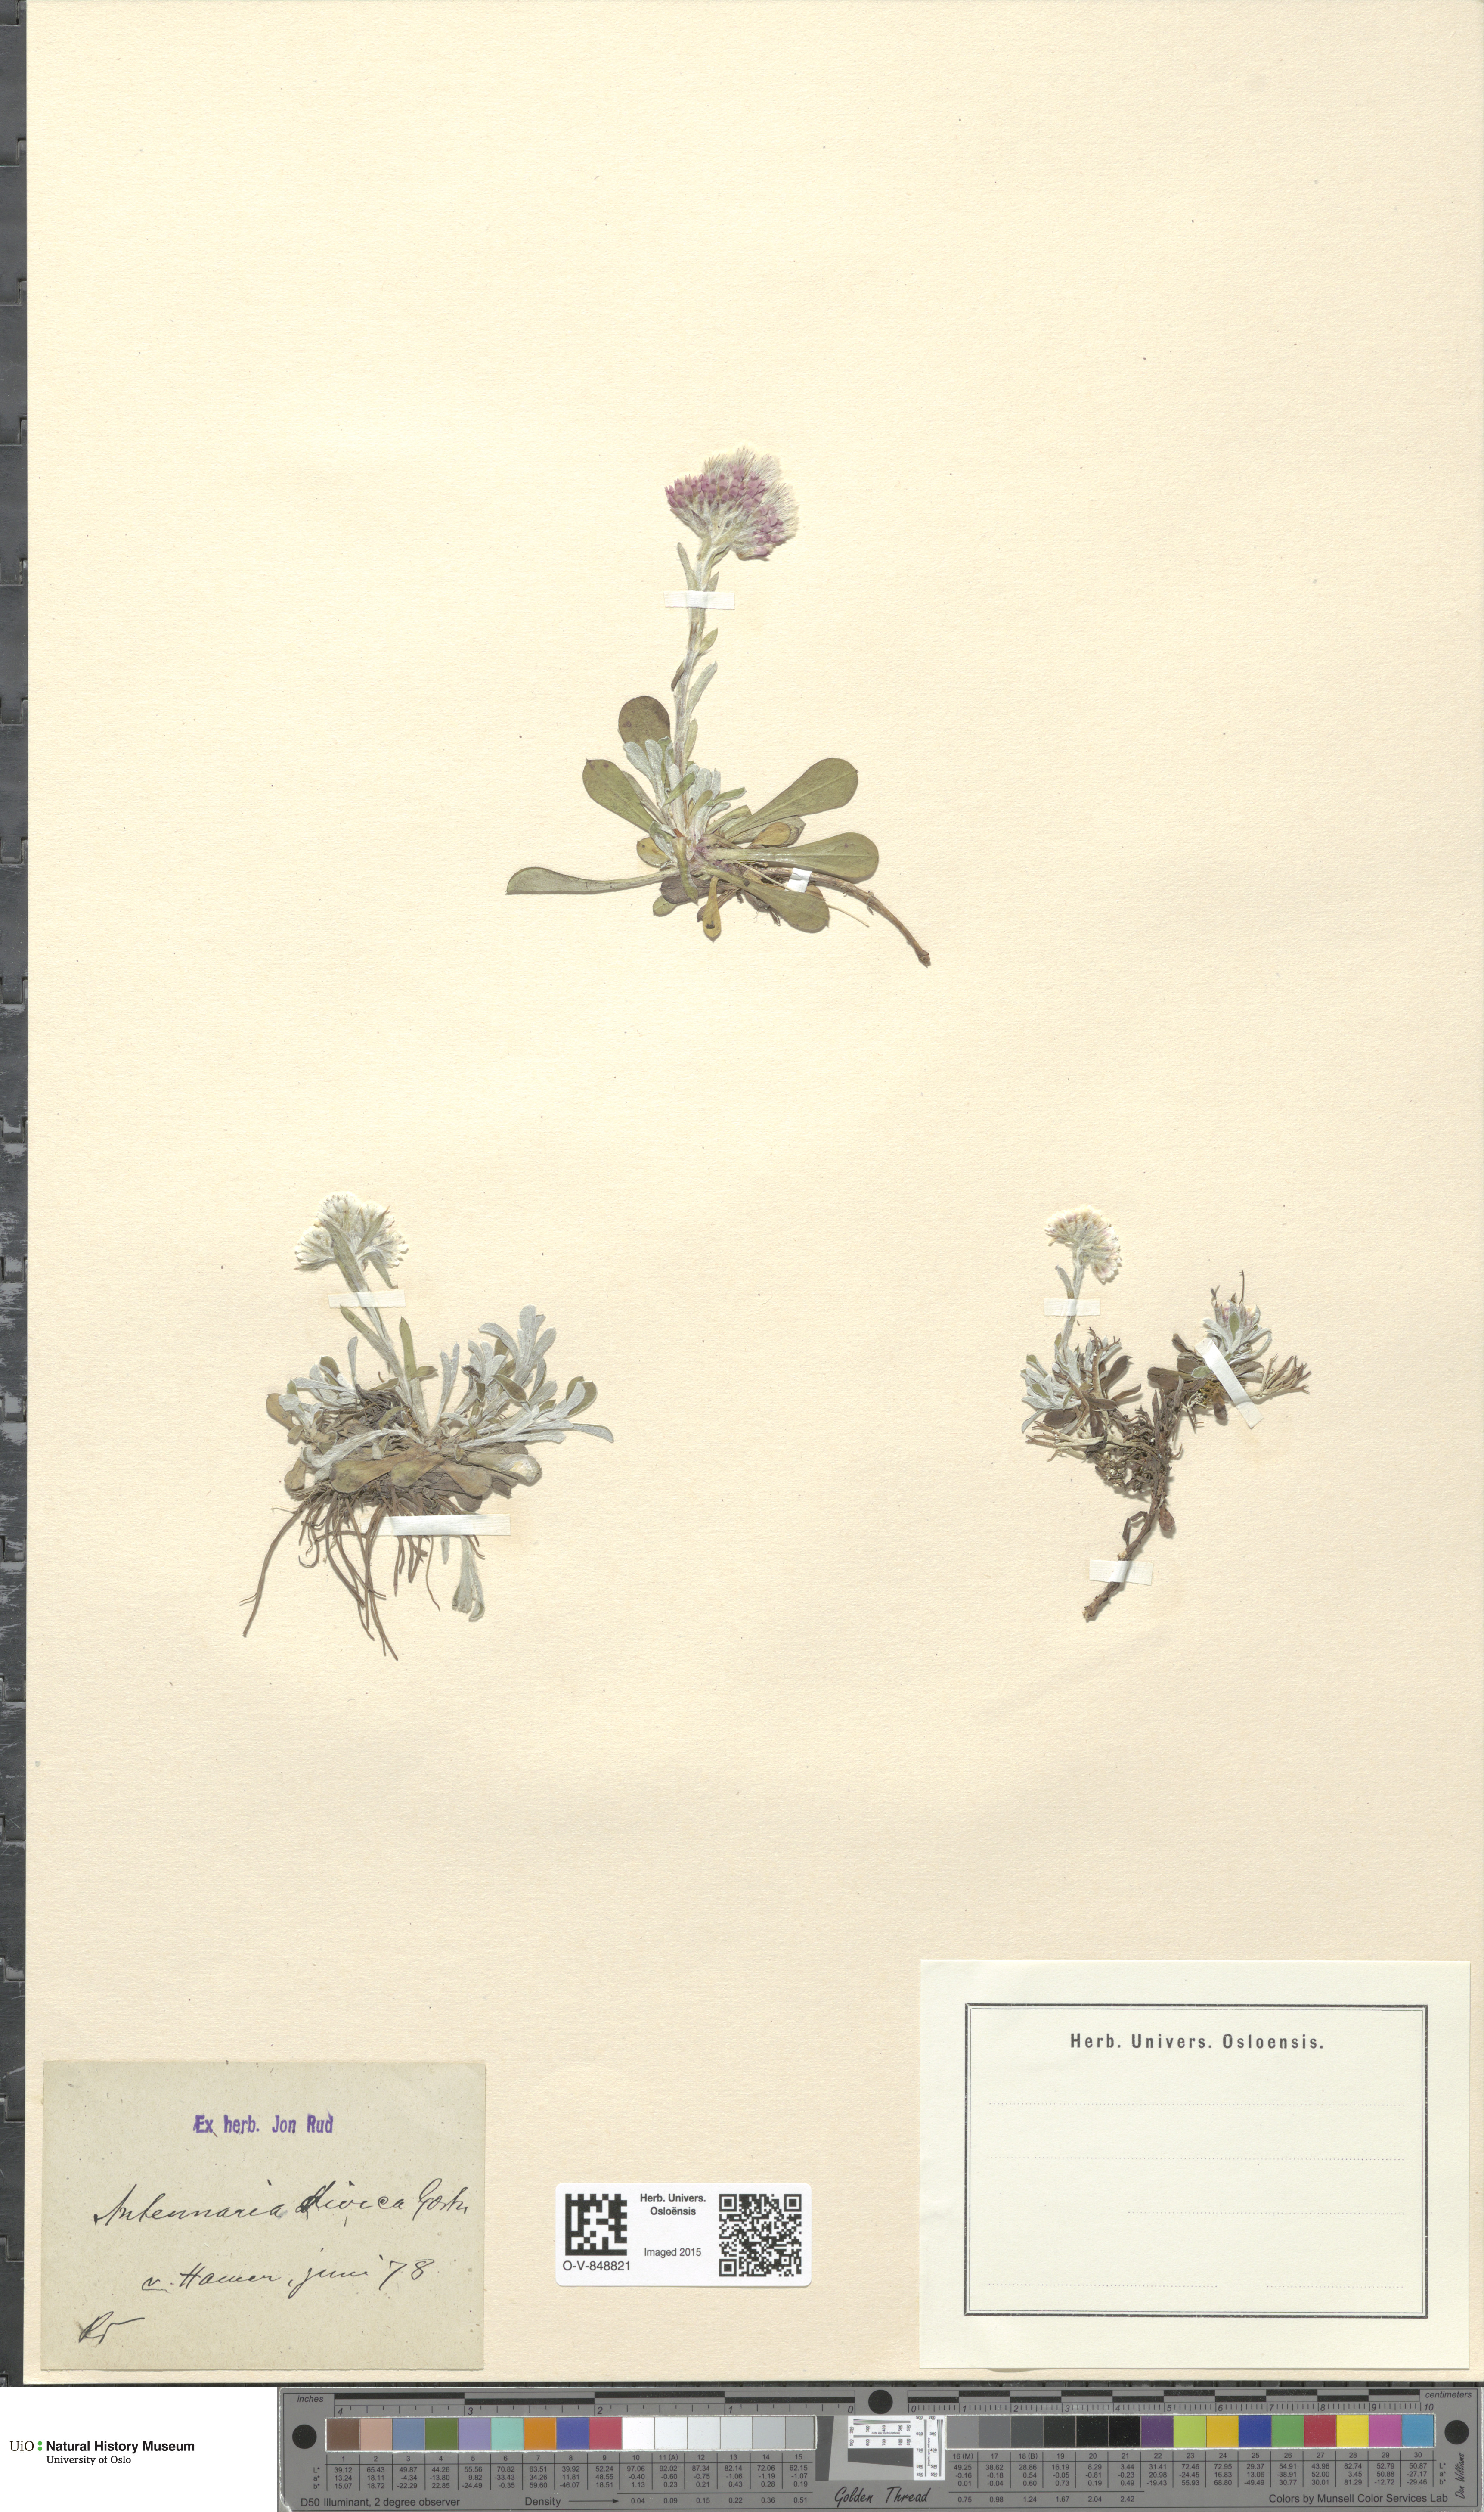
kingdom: Plantae
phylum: Tracheophyta
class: Magnoliopsida
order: Asterales
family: Asteraceae
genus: Antennaria
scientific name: Antennaria dioica
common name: Mountain everlasting
